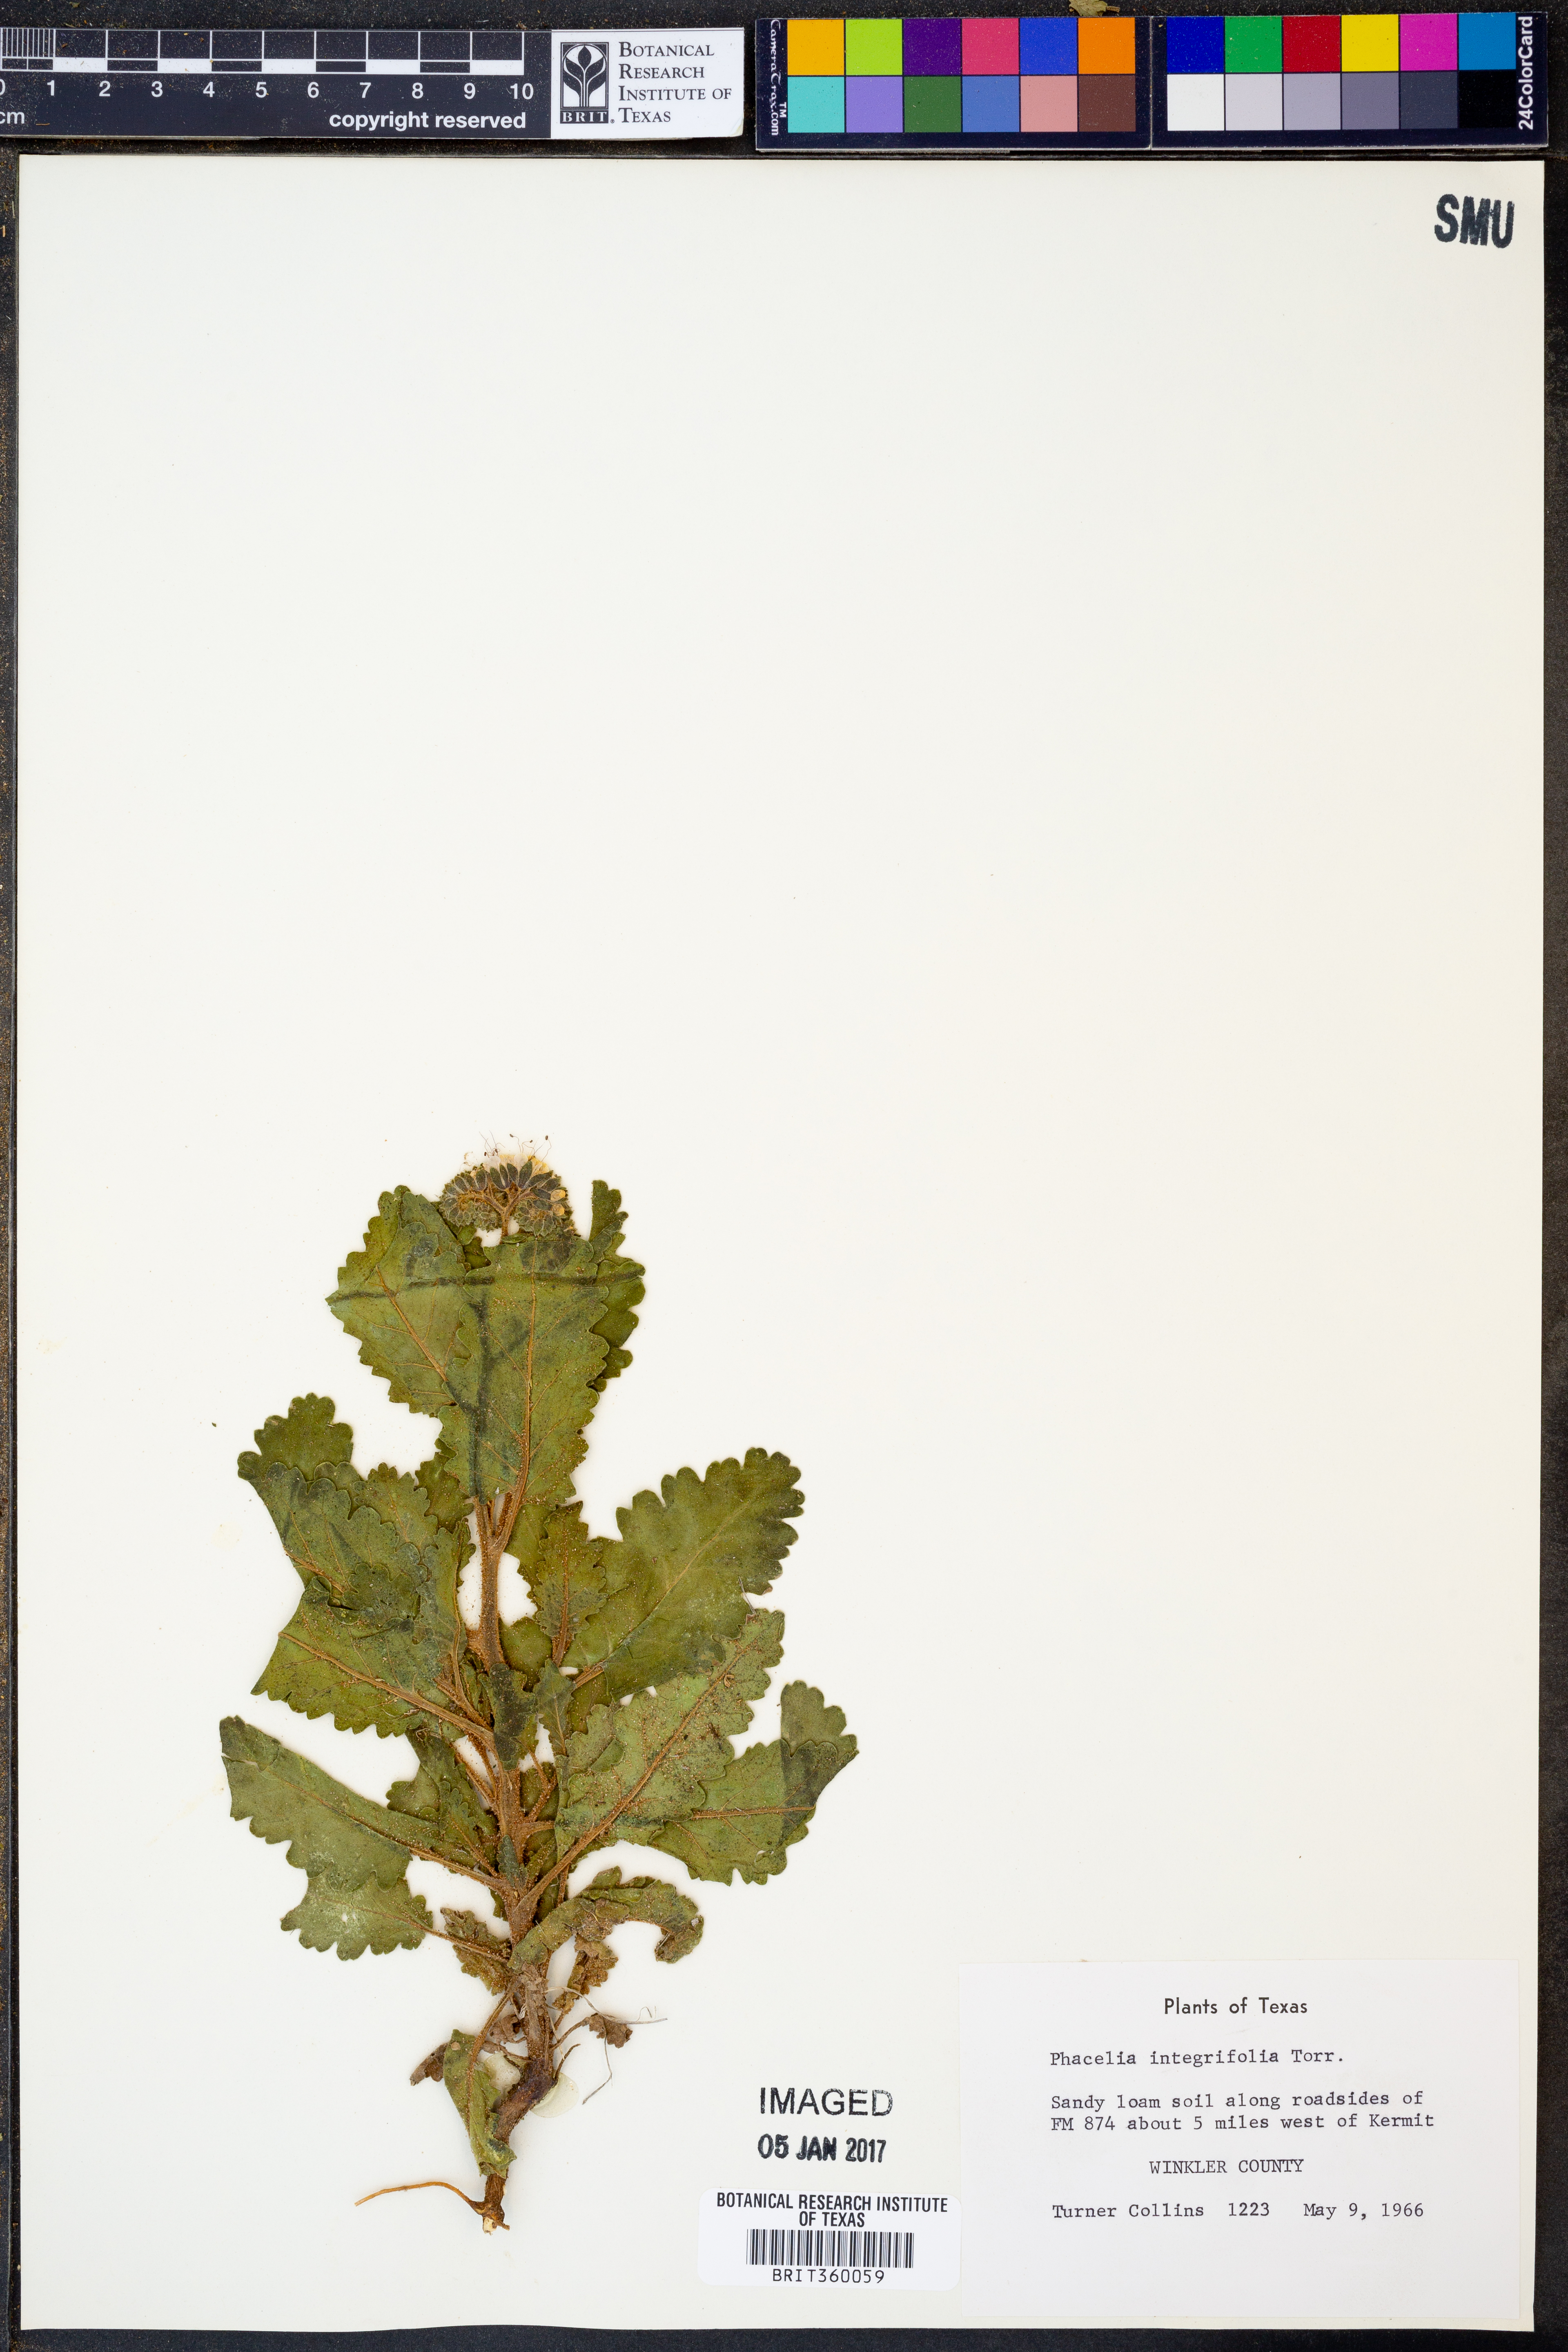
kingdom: Plantae
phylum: Tracheophyta
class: Magnoliopsida
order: Boraginales
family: Hydrophyllaceae
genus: Phacelia
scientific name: Phacelia integrifolia
